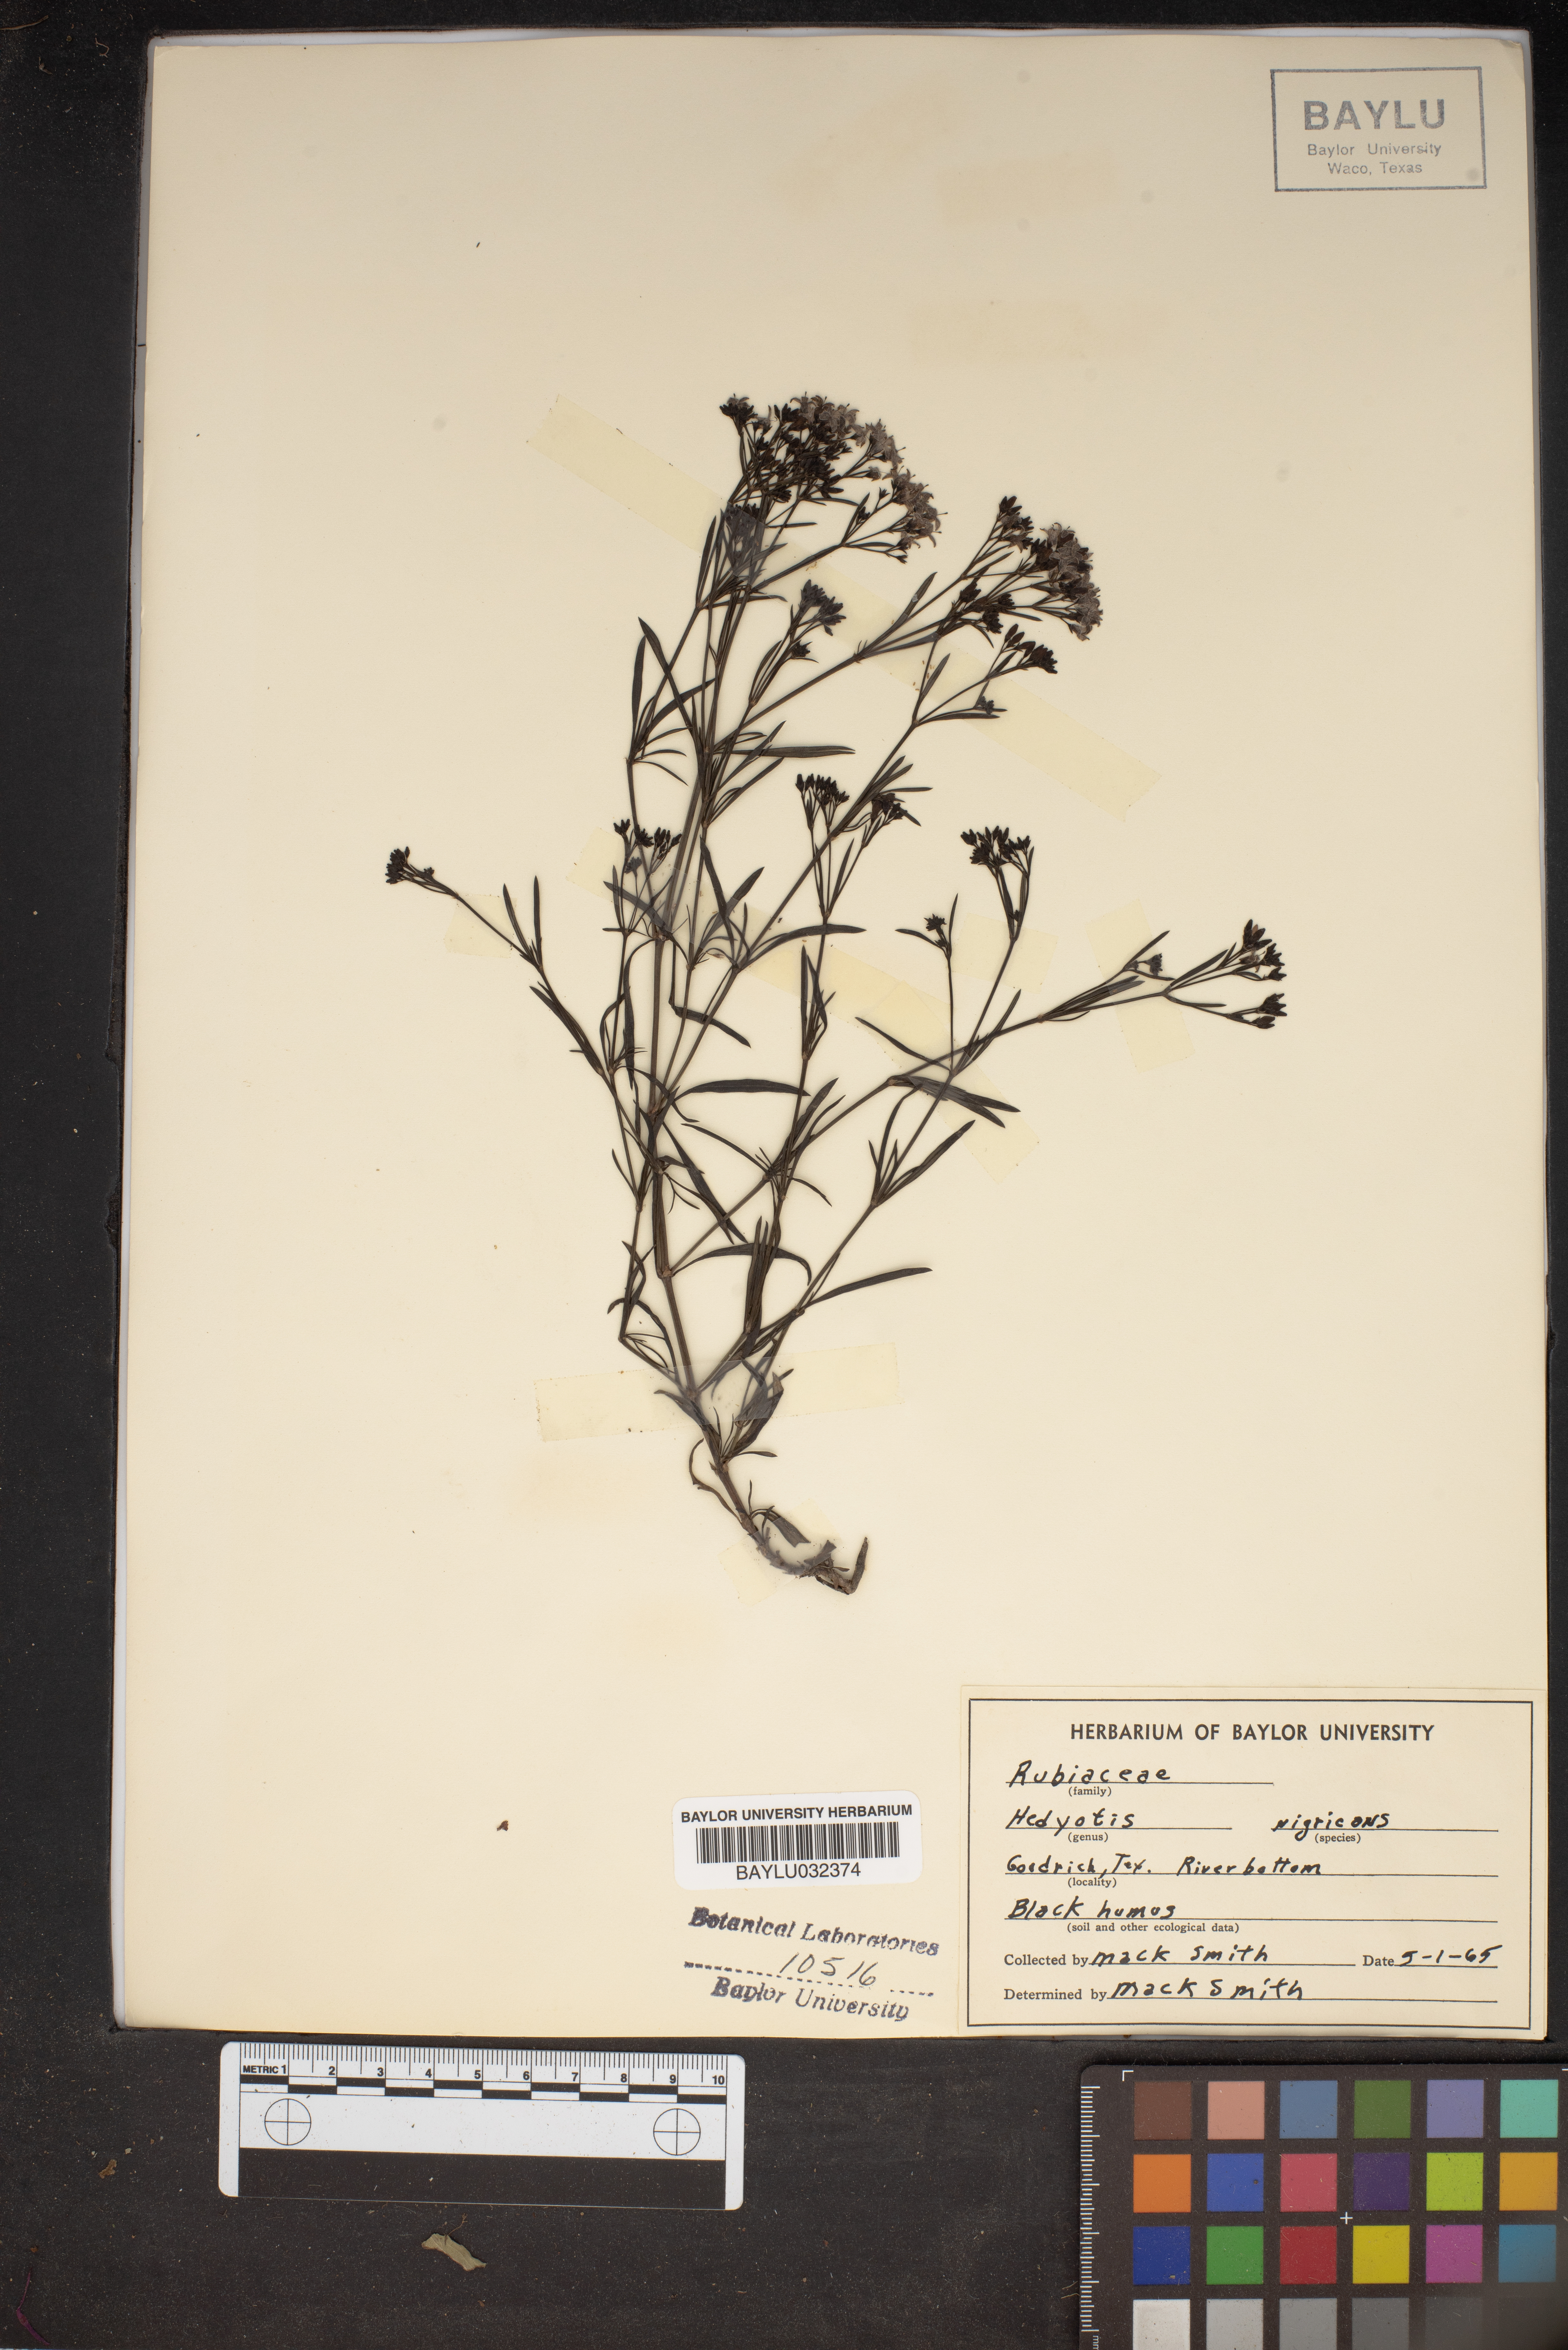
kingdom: Plantae
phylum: Tracheophyta
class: Magnoliopsida
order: Gentianales
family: Rubiaceae
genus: Stenaria
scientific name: Stenaria nigricans
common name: Diamondflowers
